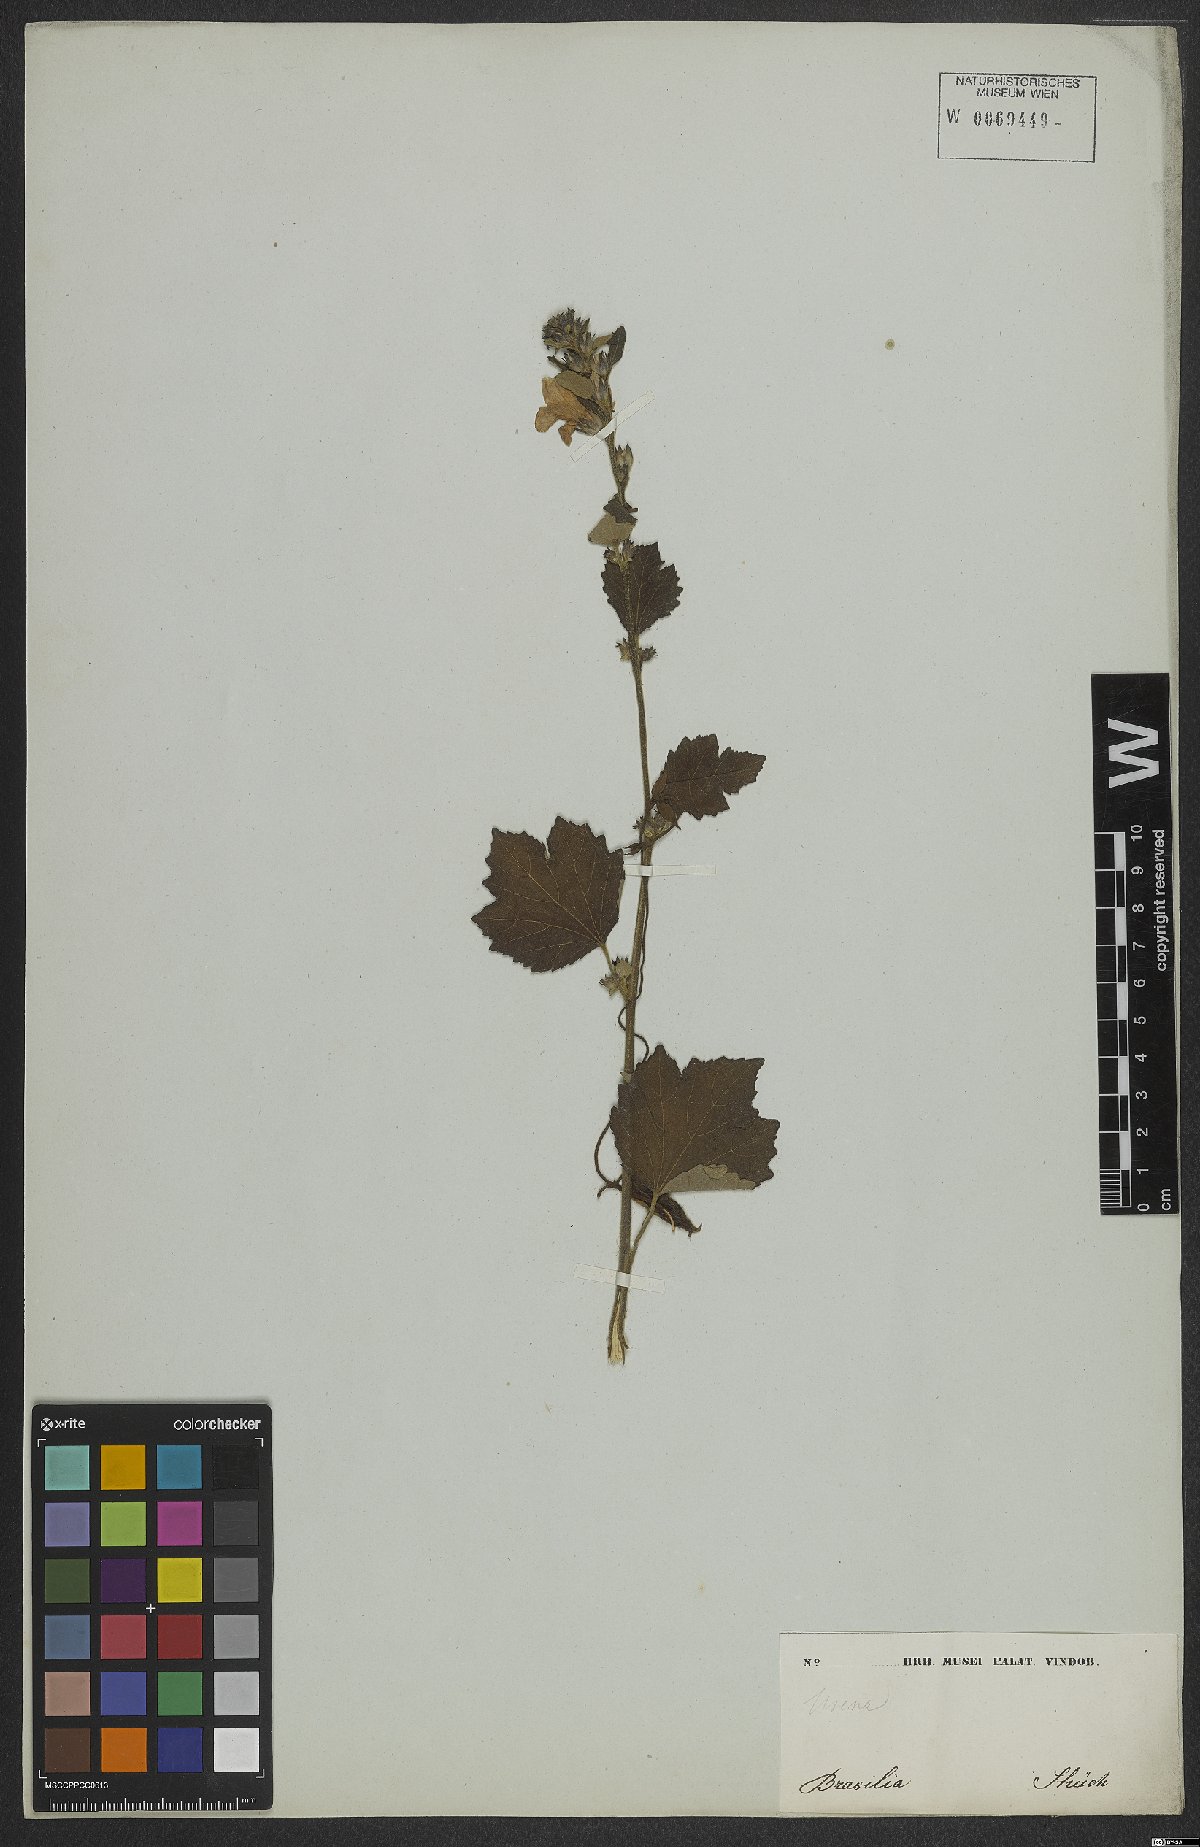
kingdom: Plantae
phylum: Tracheophyta
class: Magnoliopsida
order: Malvales
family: Malvaceae
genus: Urena
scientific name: Urena lobata
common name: Caesarweed
